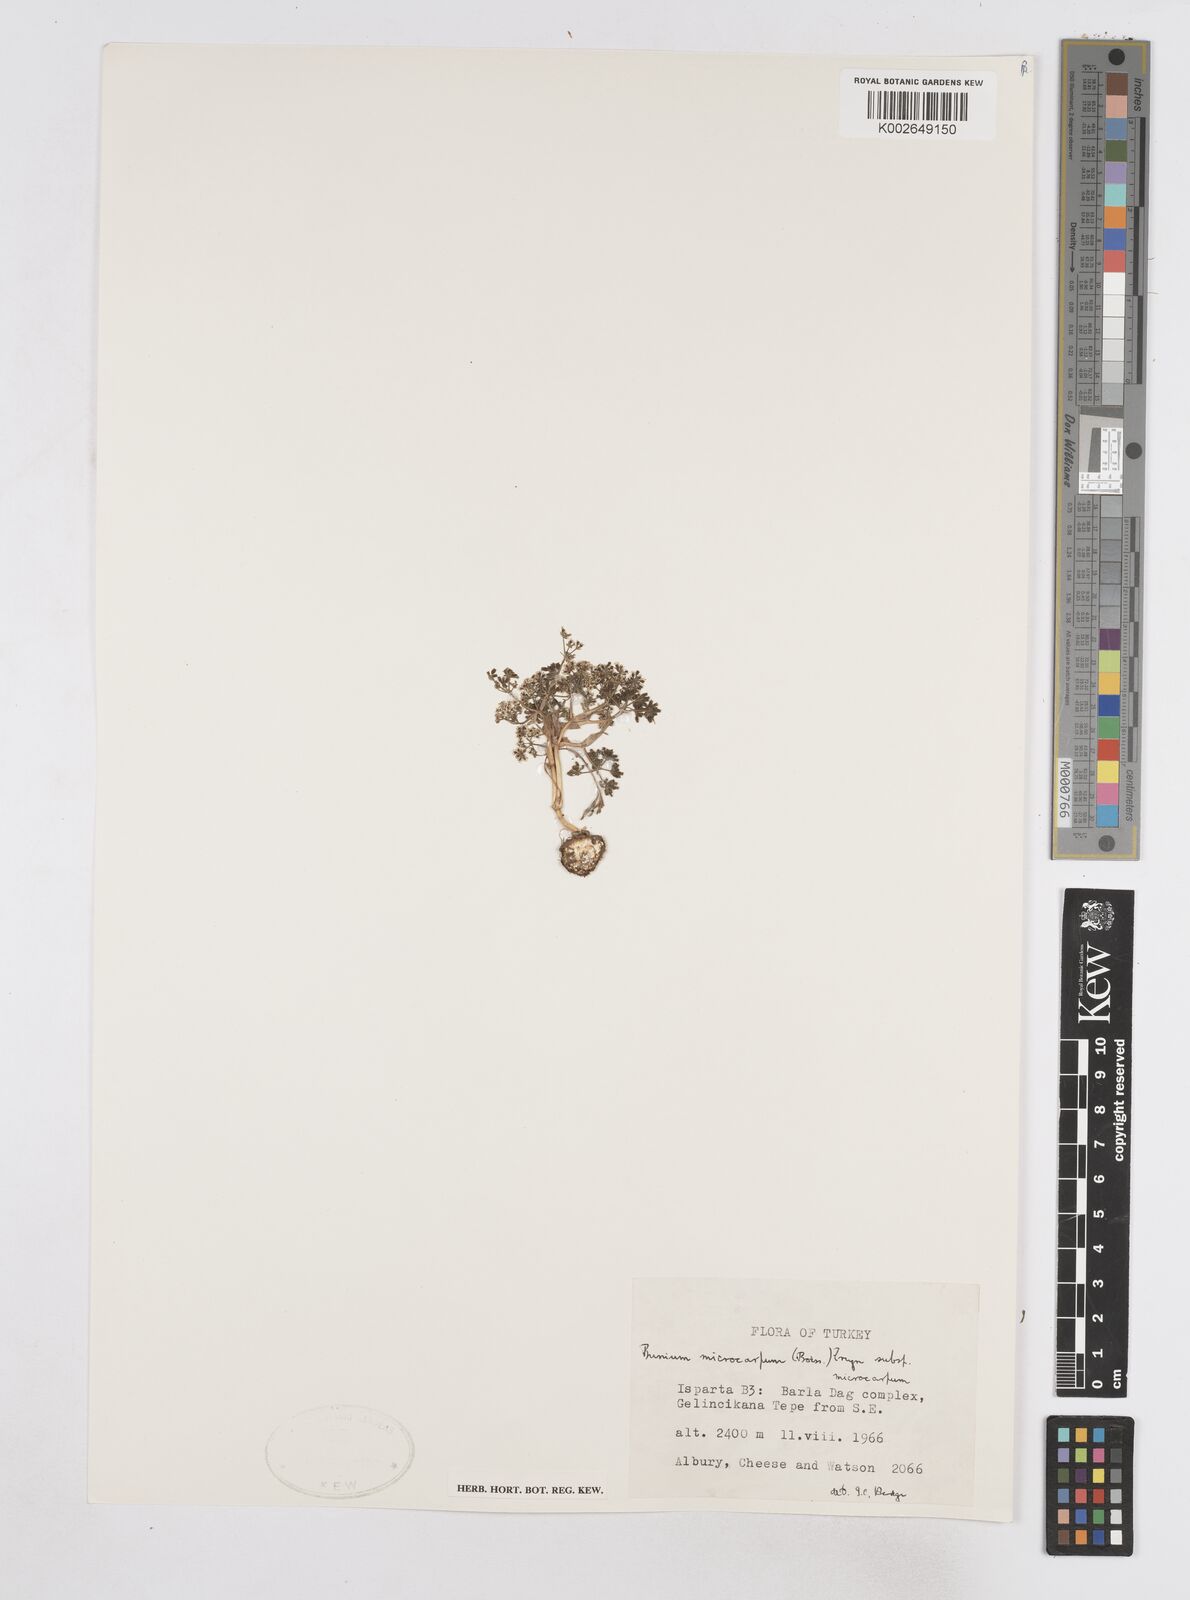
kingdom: Plantae
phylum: Tracheophyta
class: Magnoliopsida
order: Apiales
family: Apiaceae
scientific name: Apiaceae
